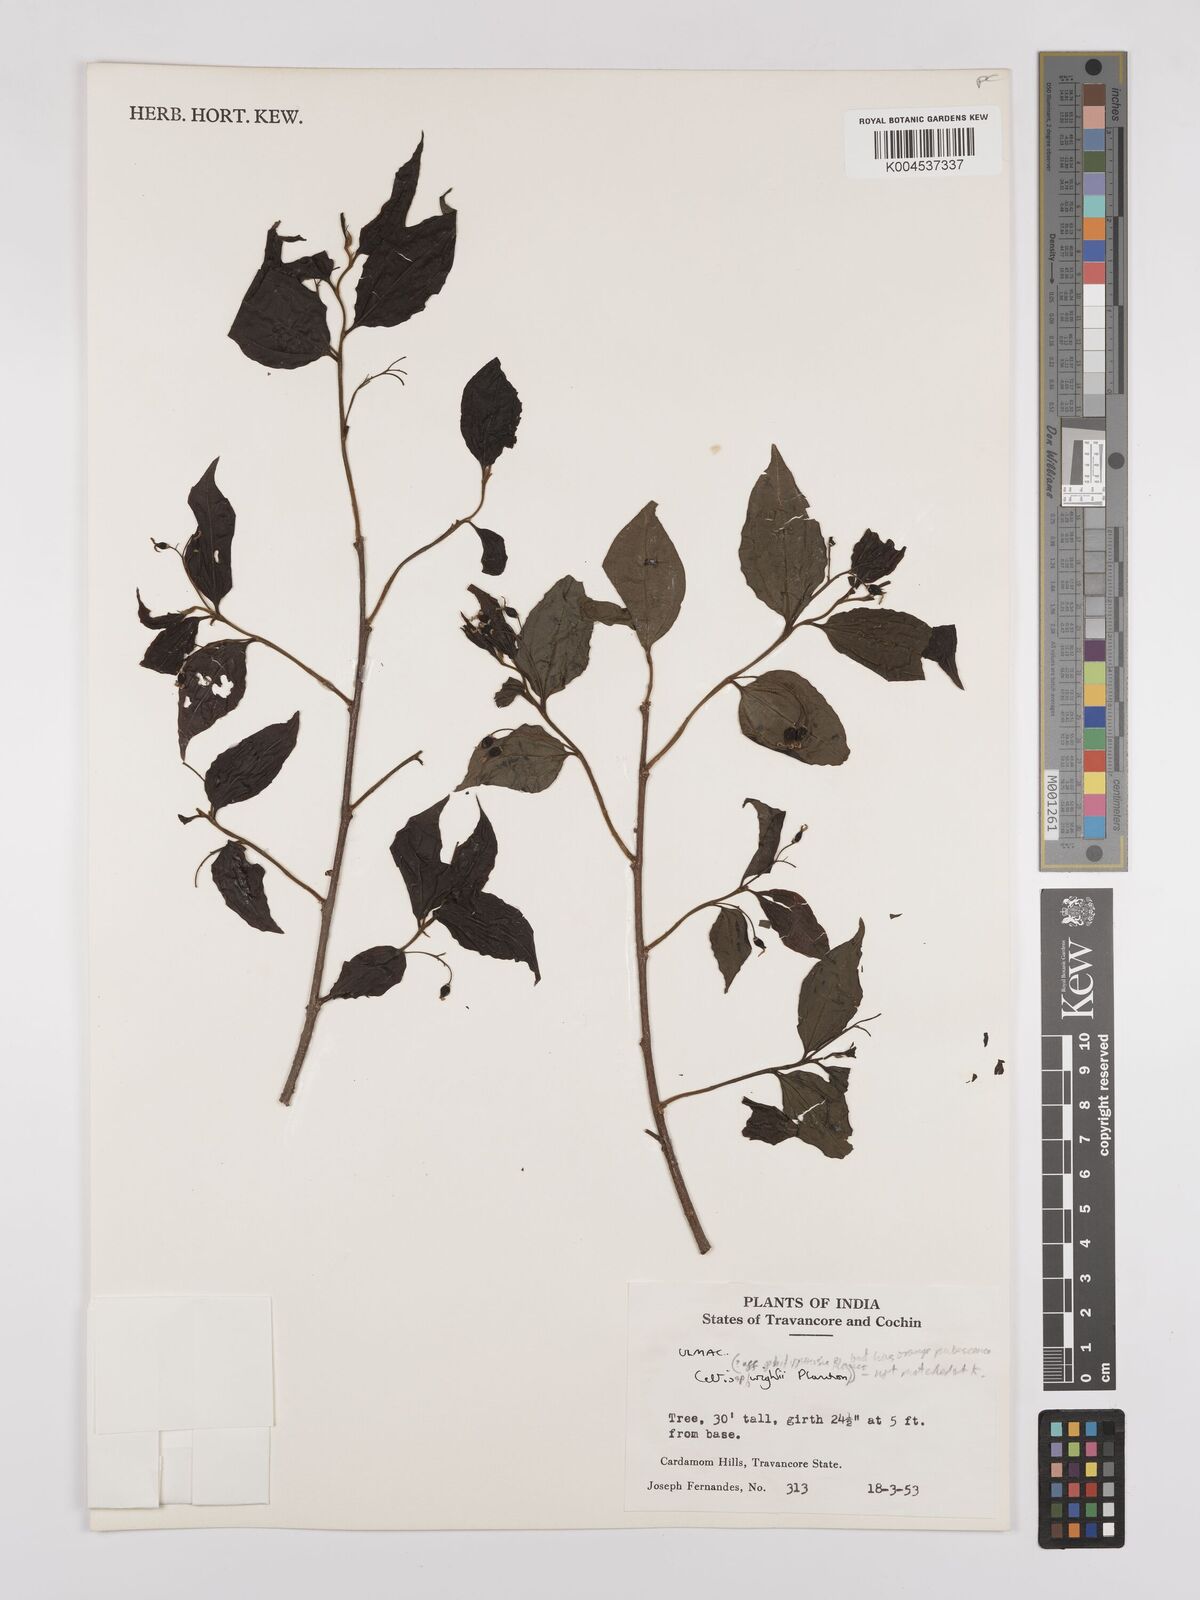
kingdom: Plantae
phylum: Tracheophyta
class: Magnoliopsida
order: Rosales
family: Cannabaceae
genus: Celtis
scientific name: Celtis
